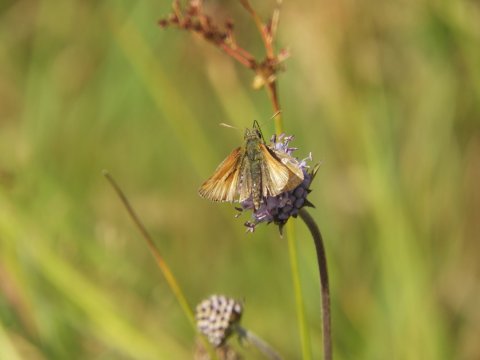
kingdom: Animalia
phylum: Arthropoda
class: Insecta
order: Lepidoptera
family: Hesperiidae
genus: Thymelicus
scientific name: Thymelicus sylvestris
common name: Small Skipper
